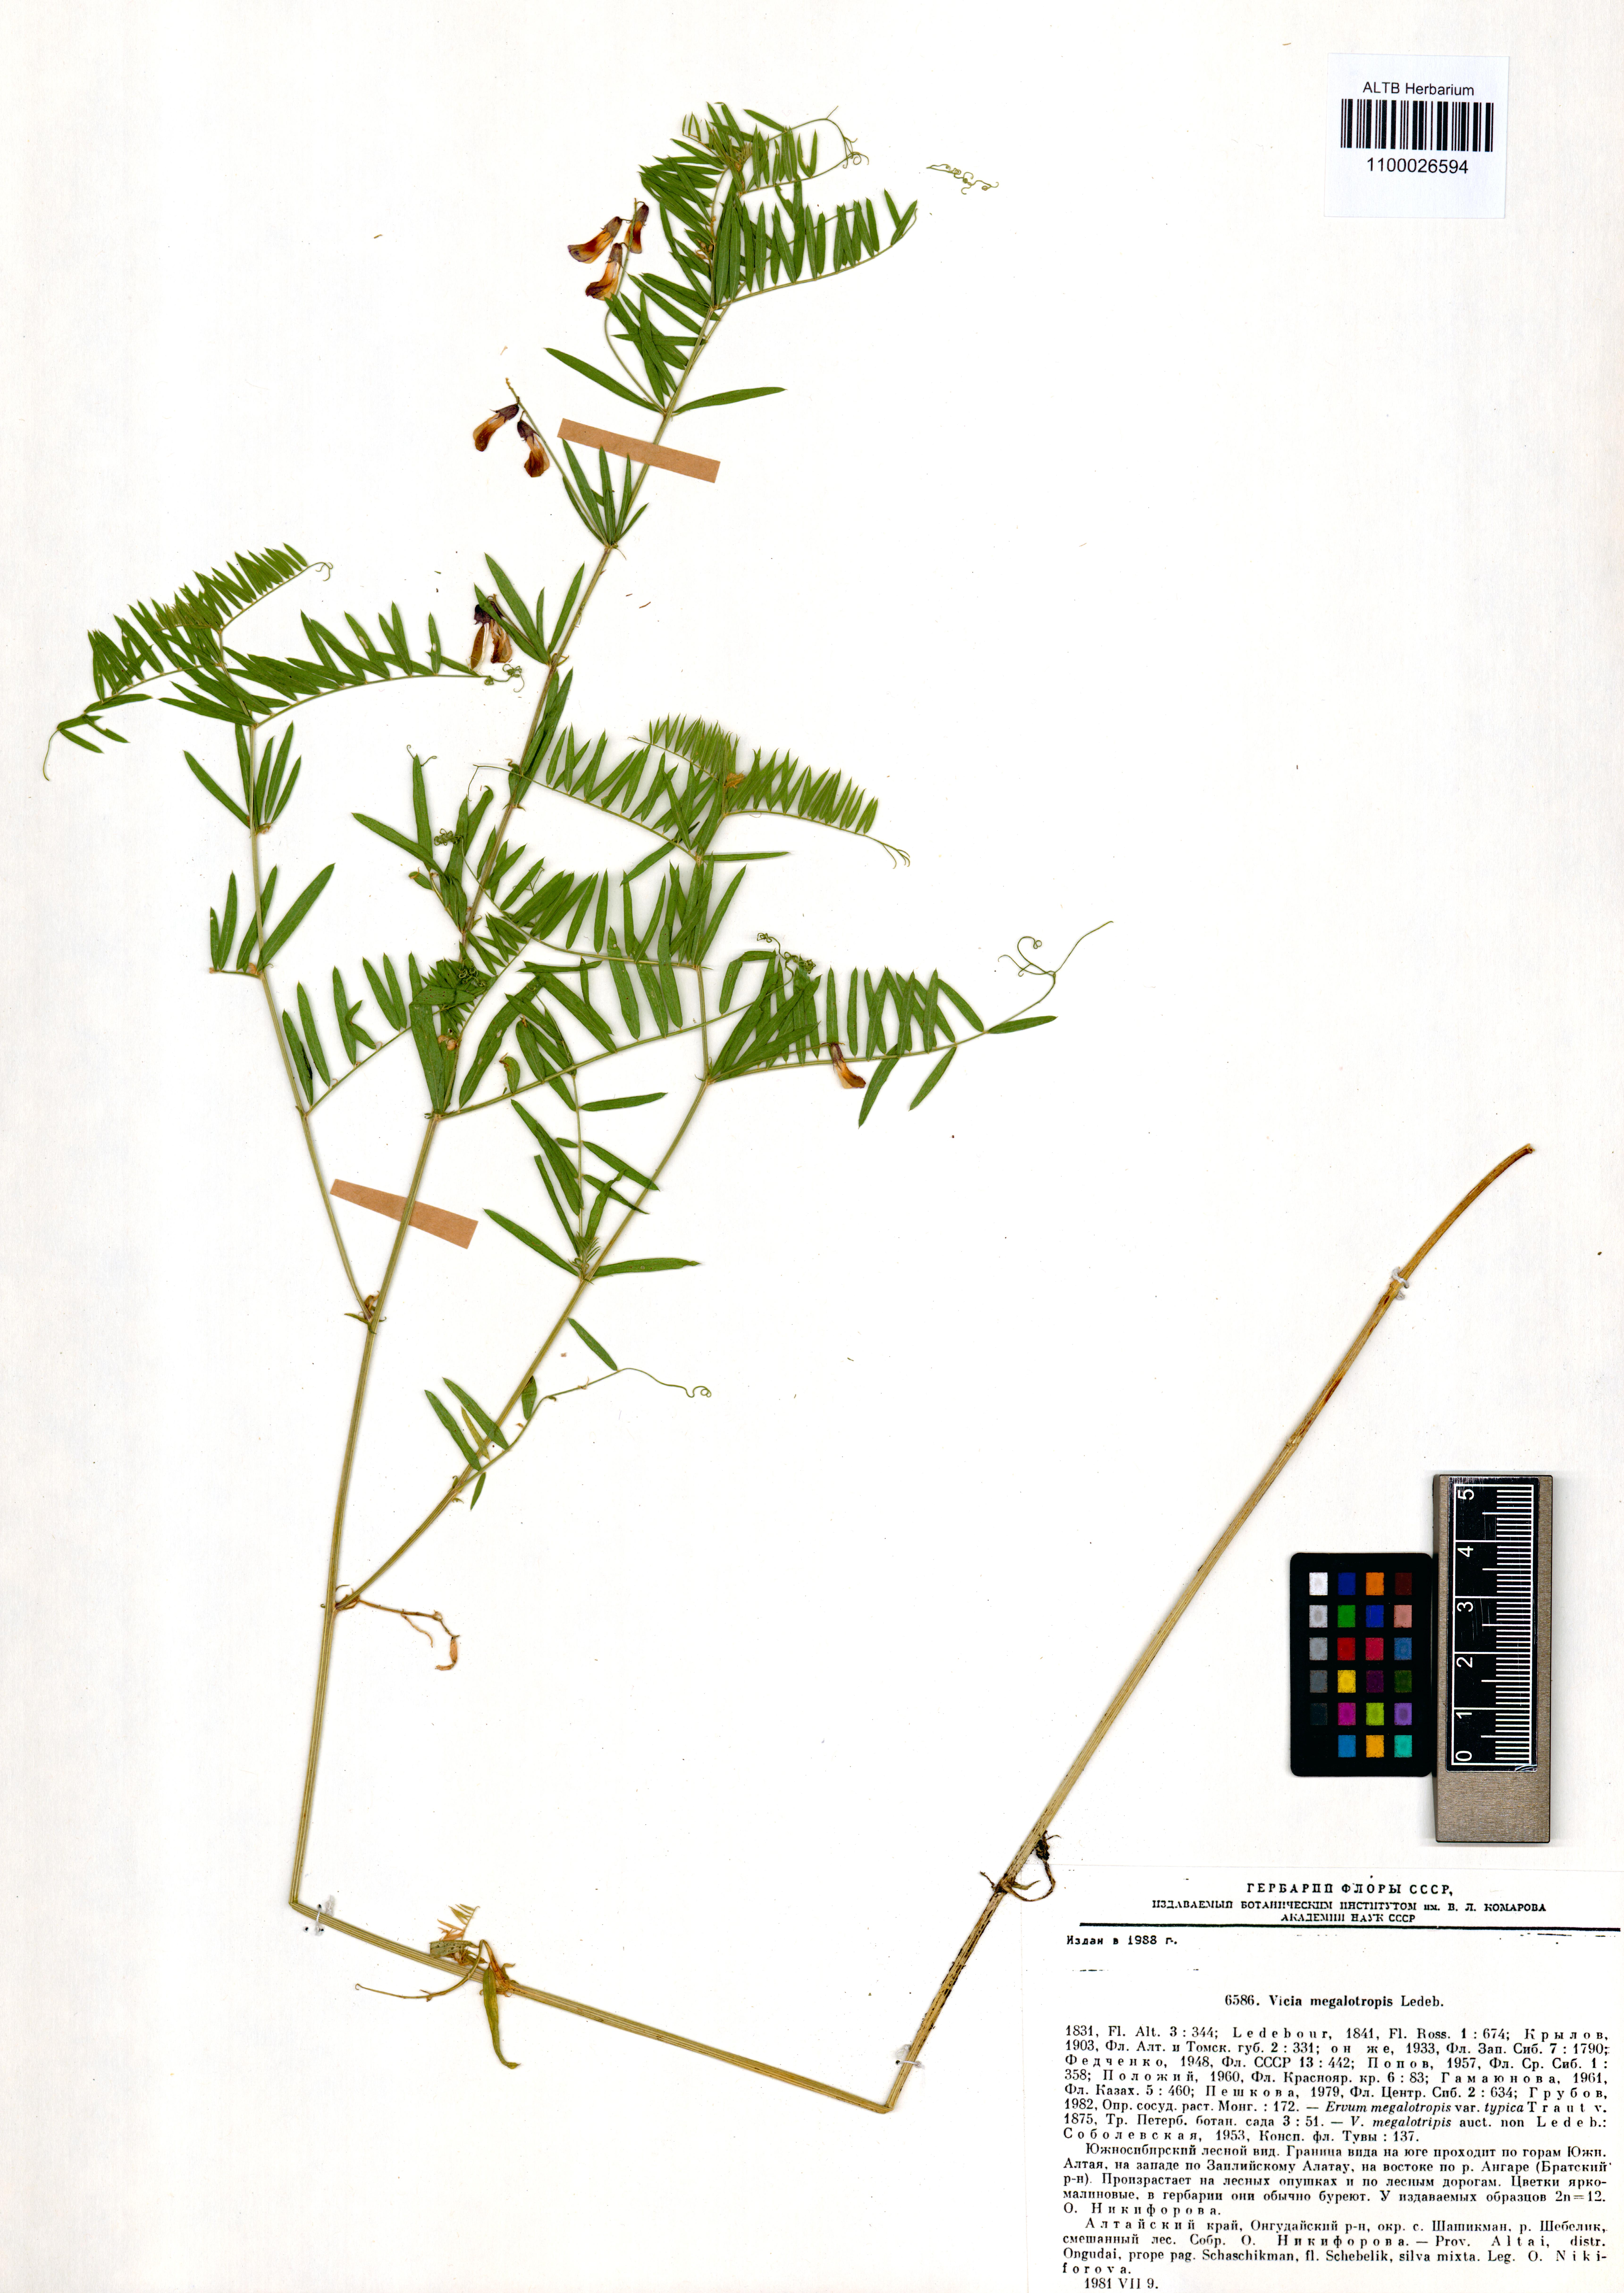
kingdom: Plantae
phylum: Tracheophyta
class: Magnoliopsida
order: Fabales
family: Fabaceae
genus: Vicia
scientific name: Vicia megalotropis
